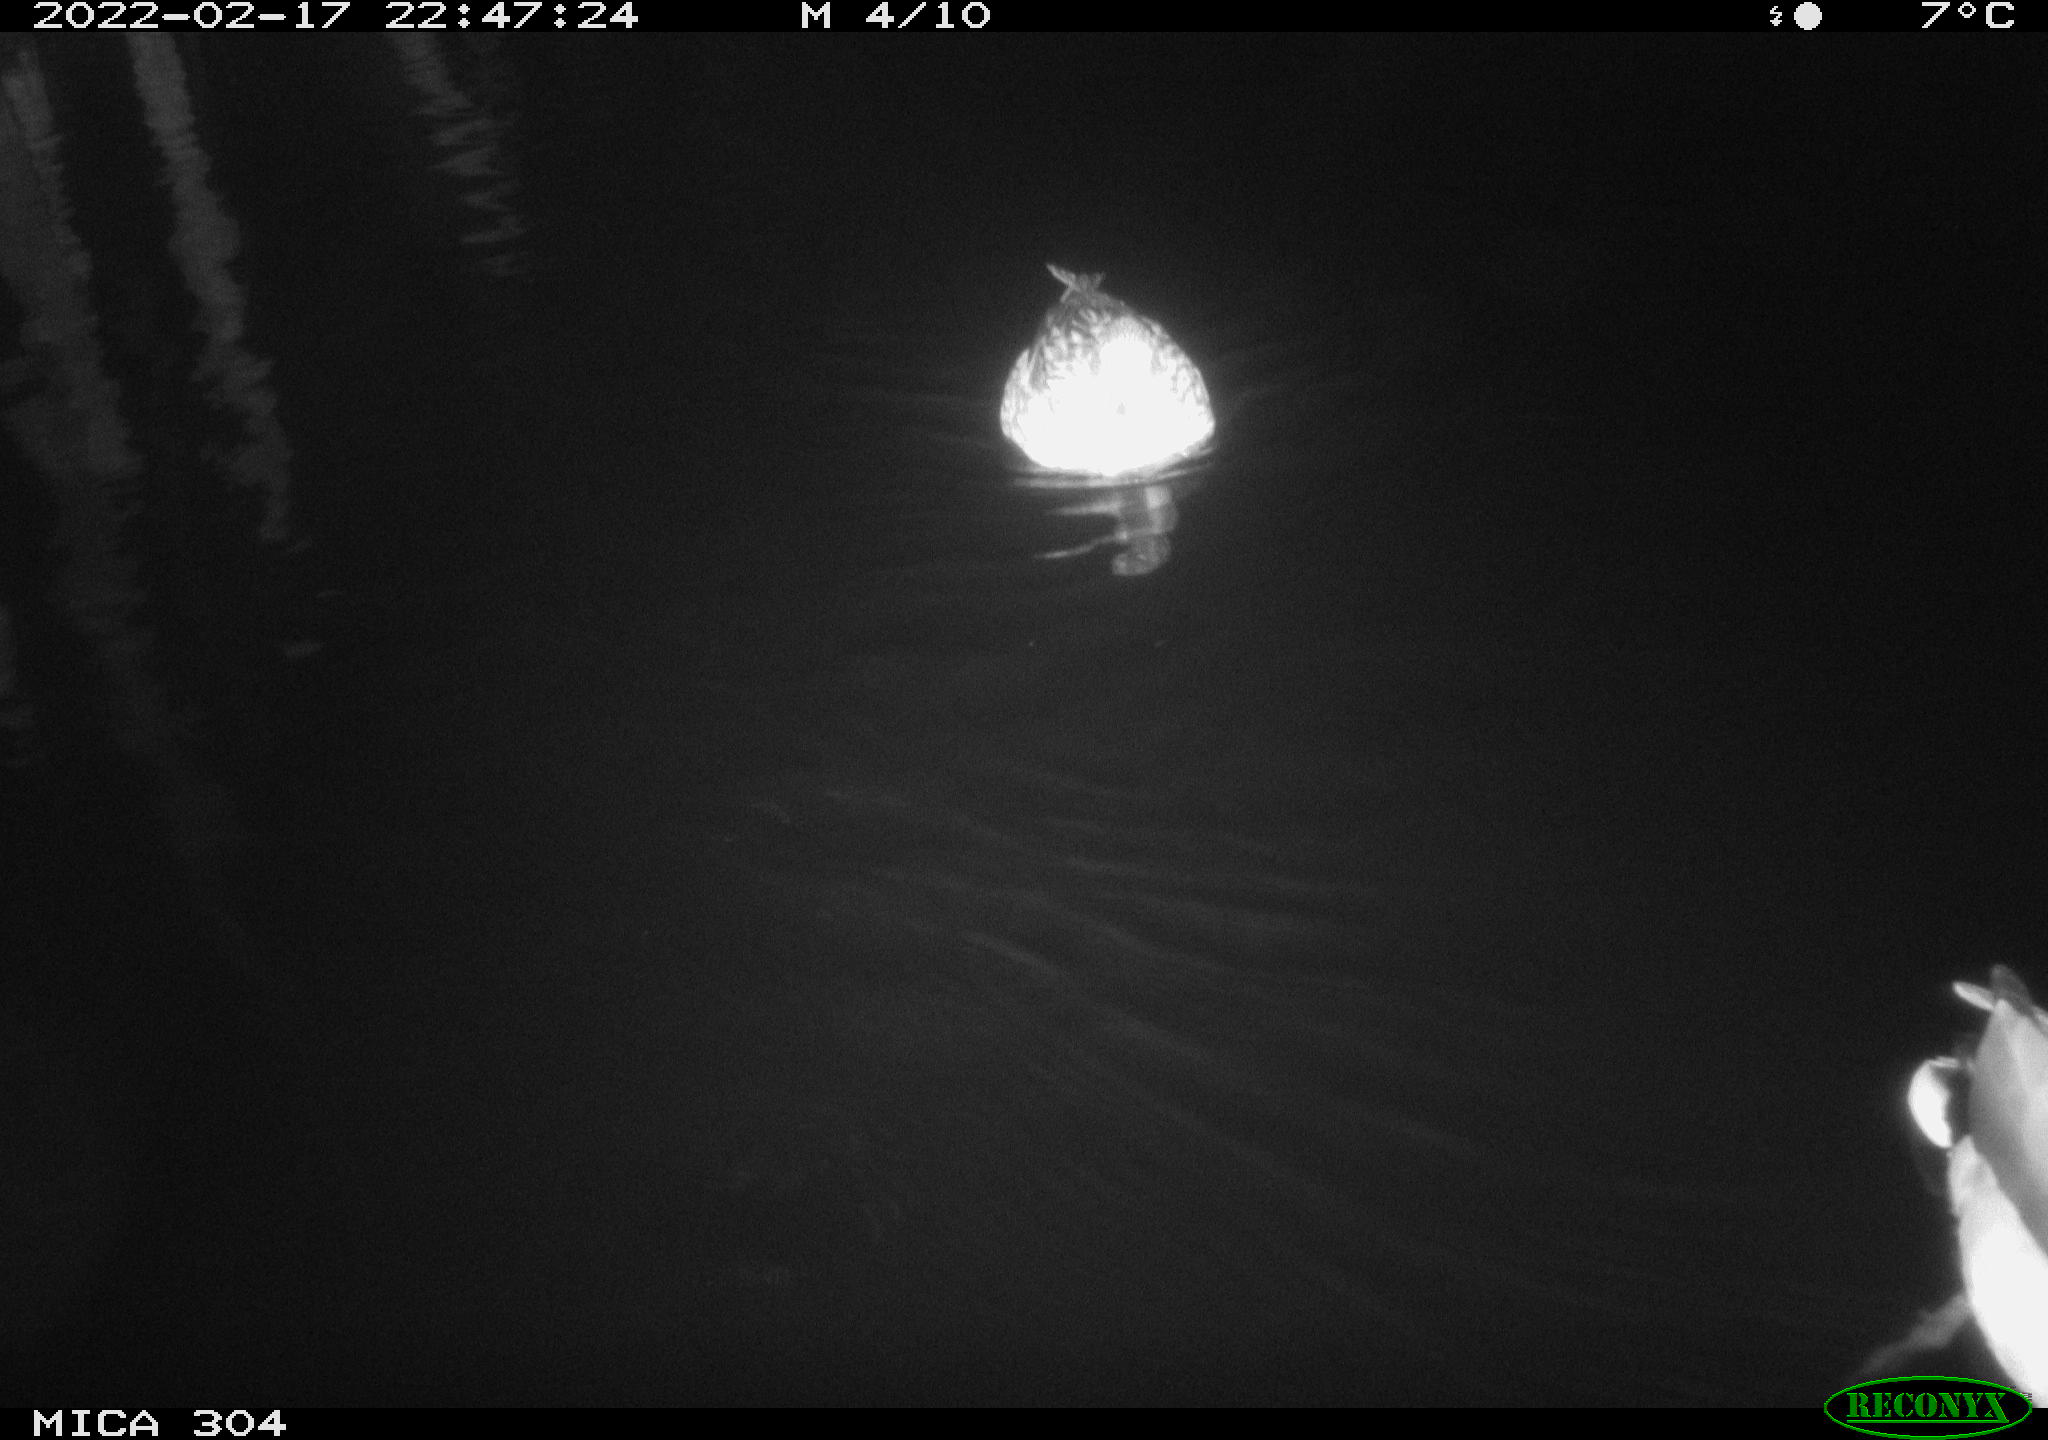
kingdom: Animalia
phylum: Chordata
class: Aves
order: Anseriformes
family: Anatidae
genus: Anas
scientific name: Anas platyrhynchos
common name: Mallard
